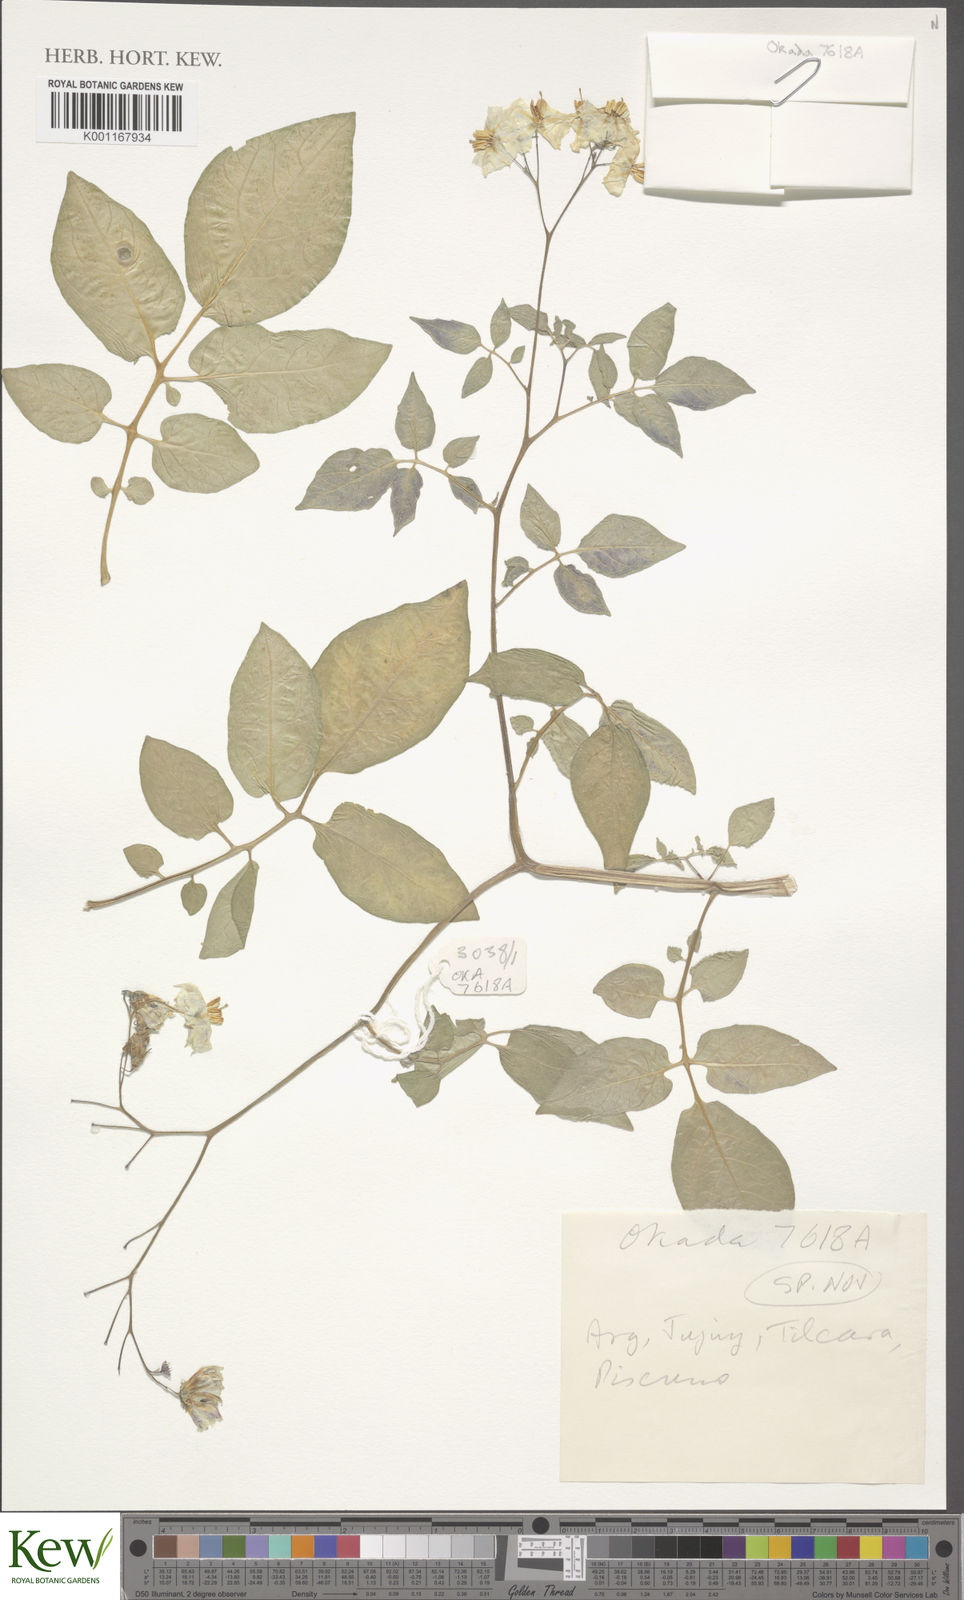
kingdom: Plantae
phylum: Tracheophyta
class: Magnoliopsida
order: Solanales
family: Solanaceae
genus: Solanum
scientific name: Solanum
